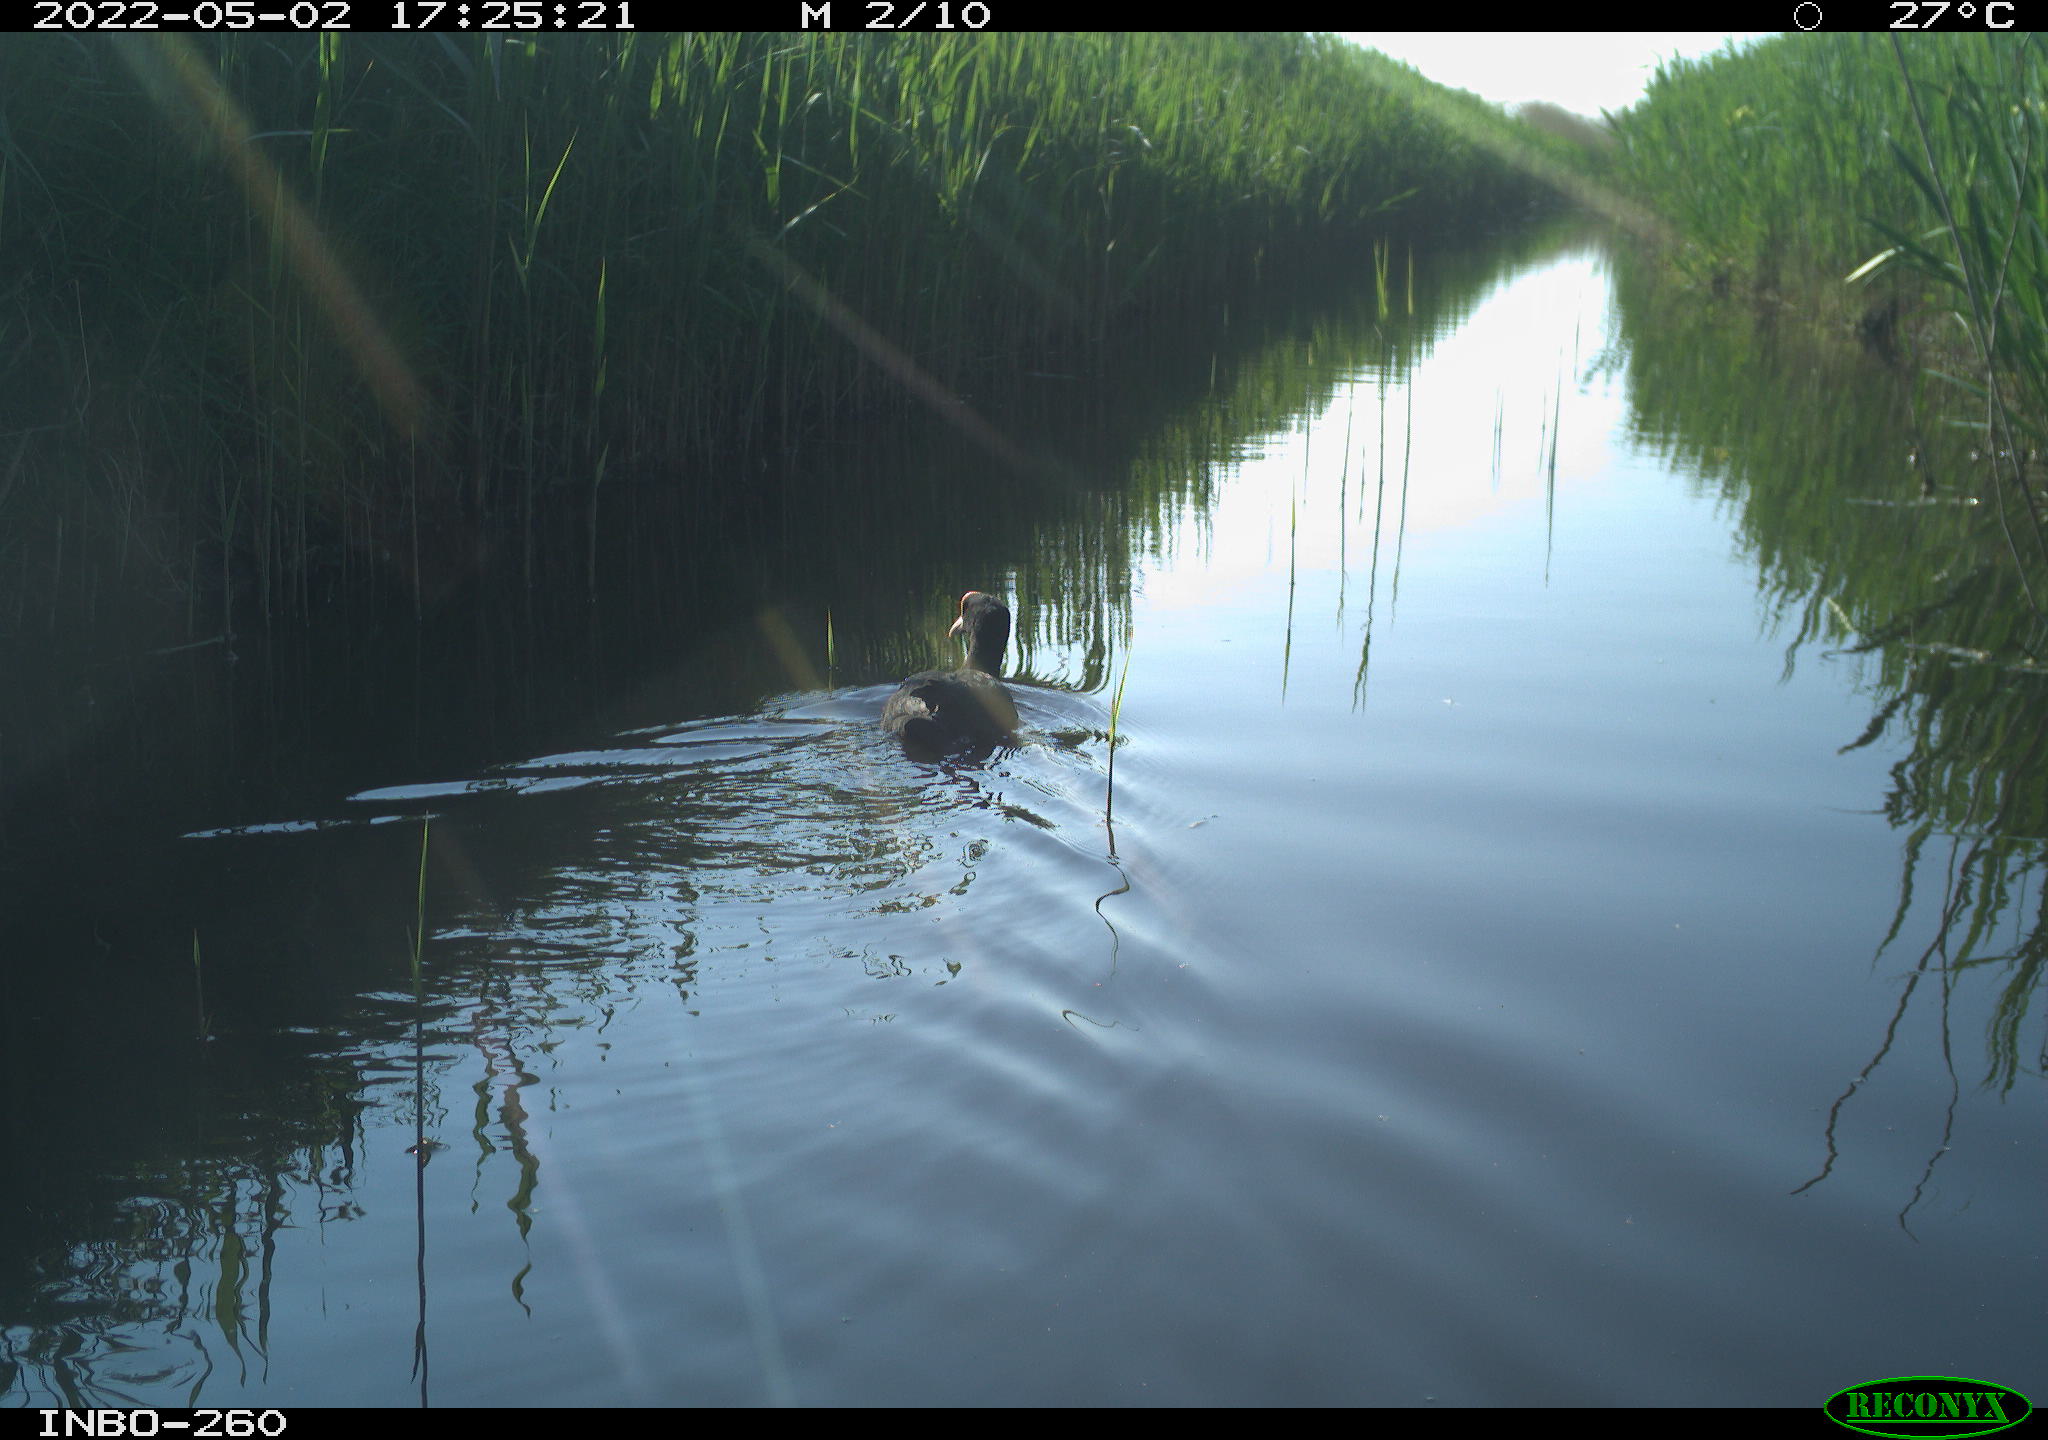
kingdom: Animalia
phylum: Chordata
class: Aves
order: Gruiformes
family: Rallidae
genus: Fulica
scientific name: Fulica atra
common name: Eurasian coot
